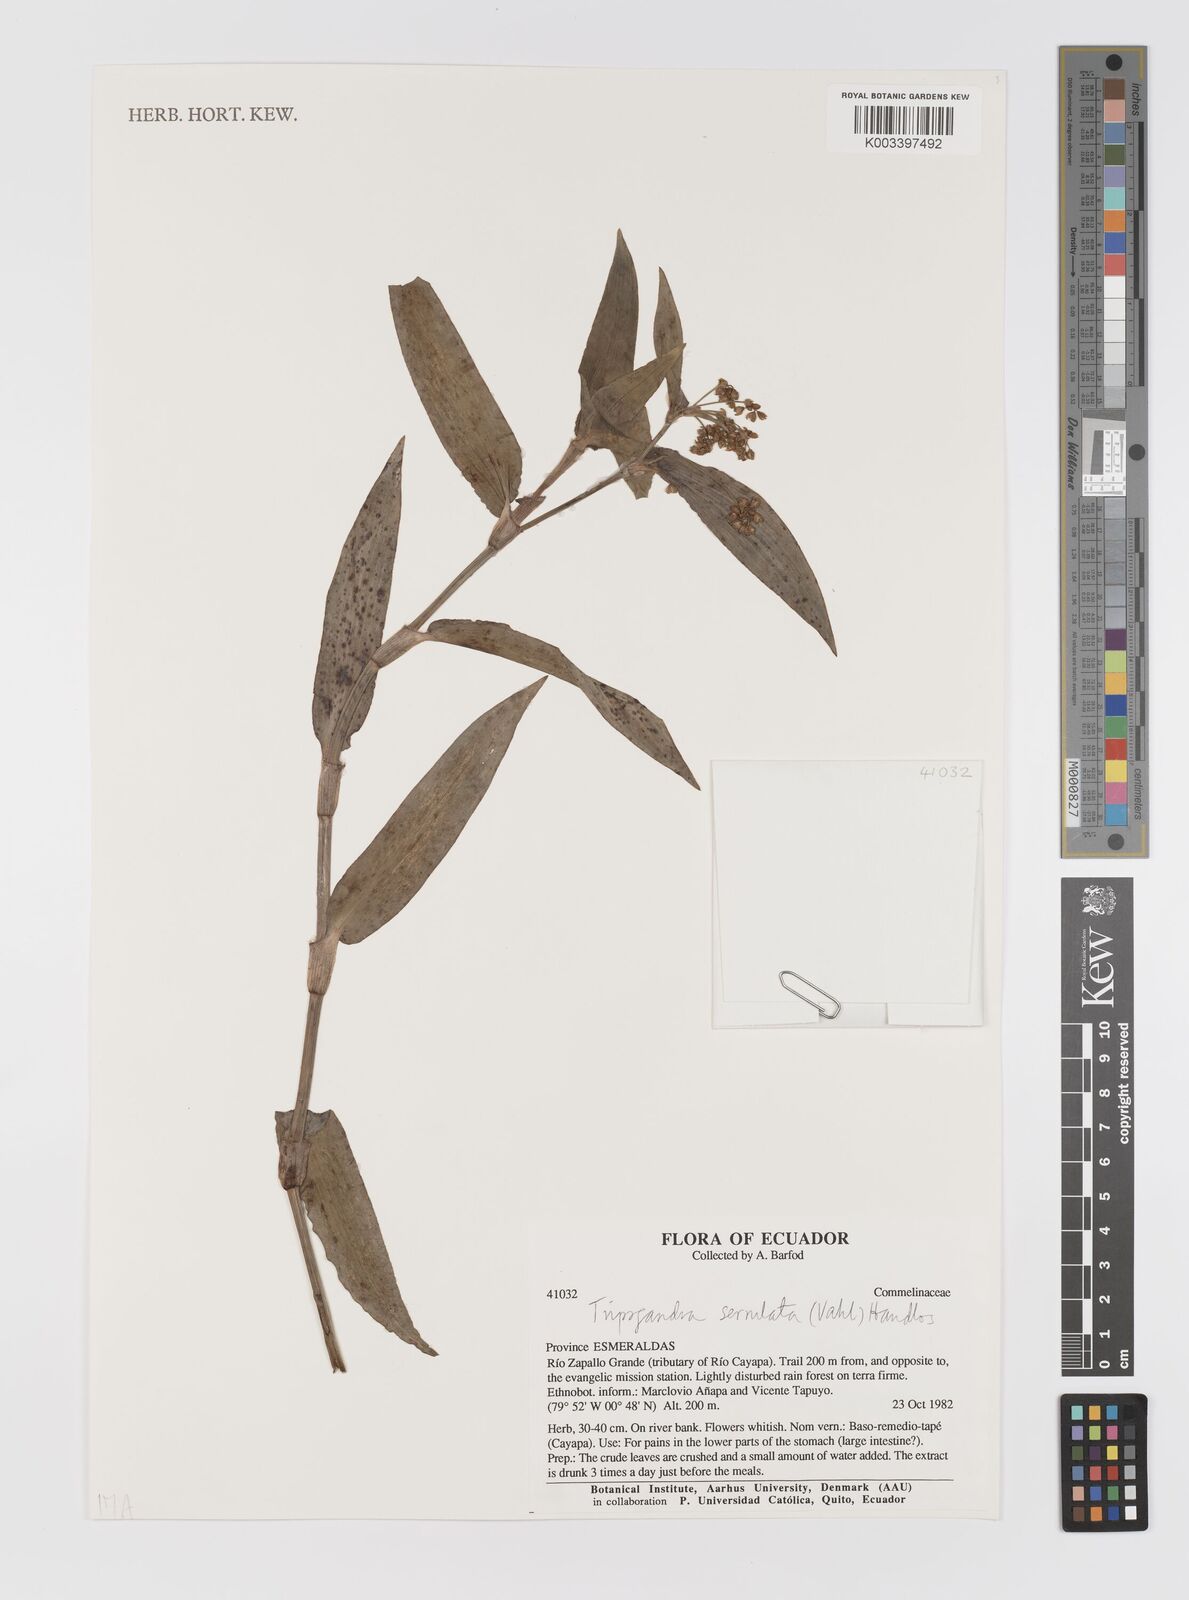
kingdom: Plantae
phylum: Tracheophyta
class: Liliopsida
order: Commelinales
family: Commelinaceae
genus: Callisia
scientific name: Callisia serrulata
